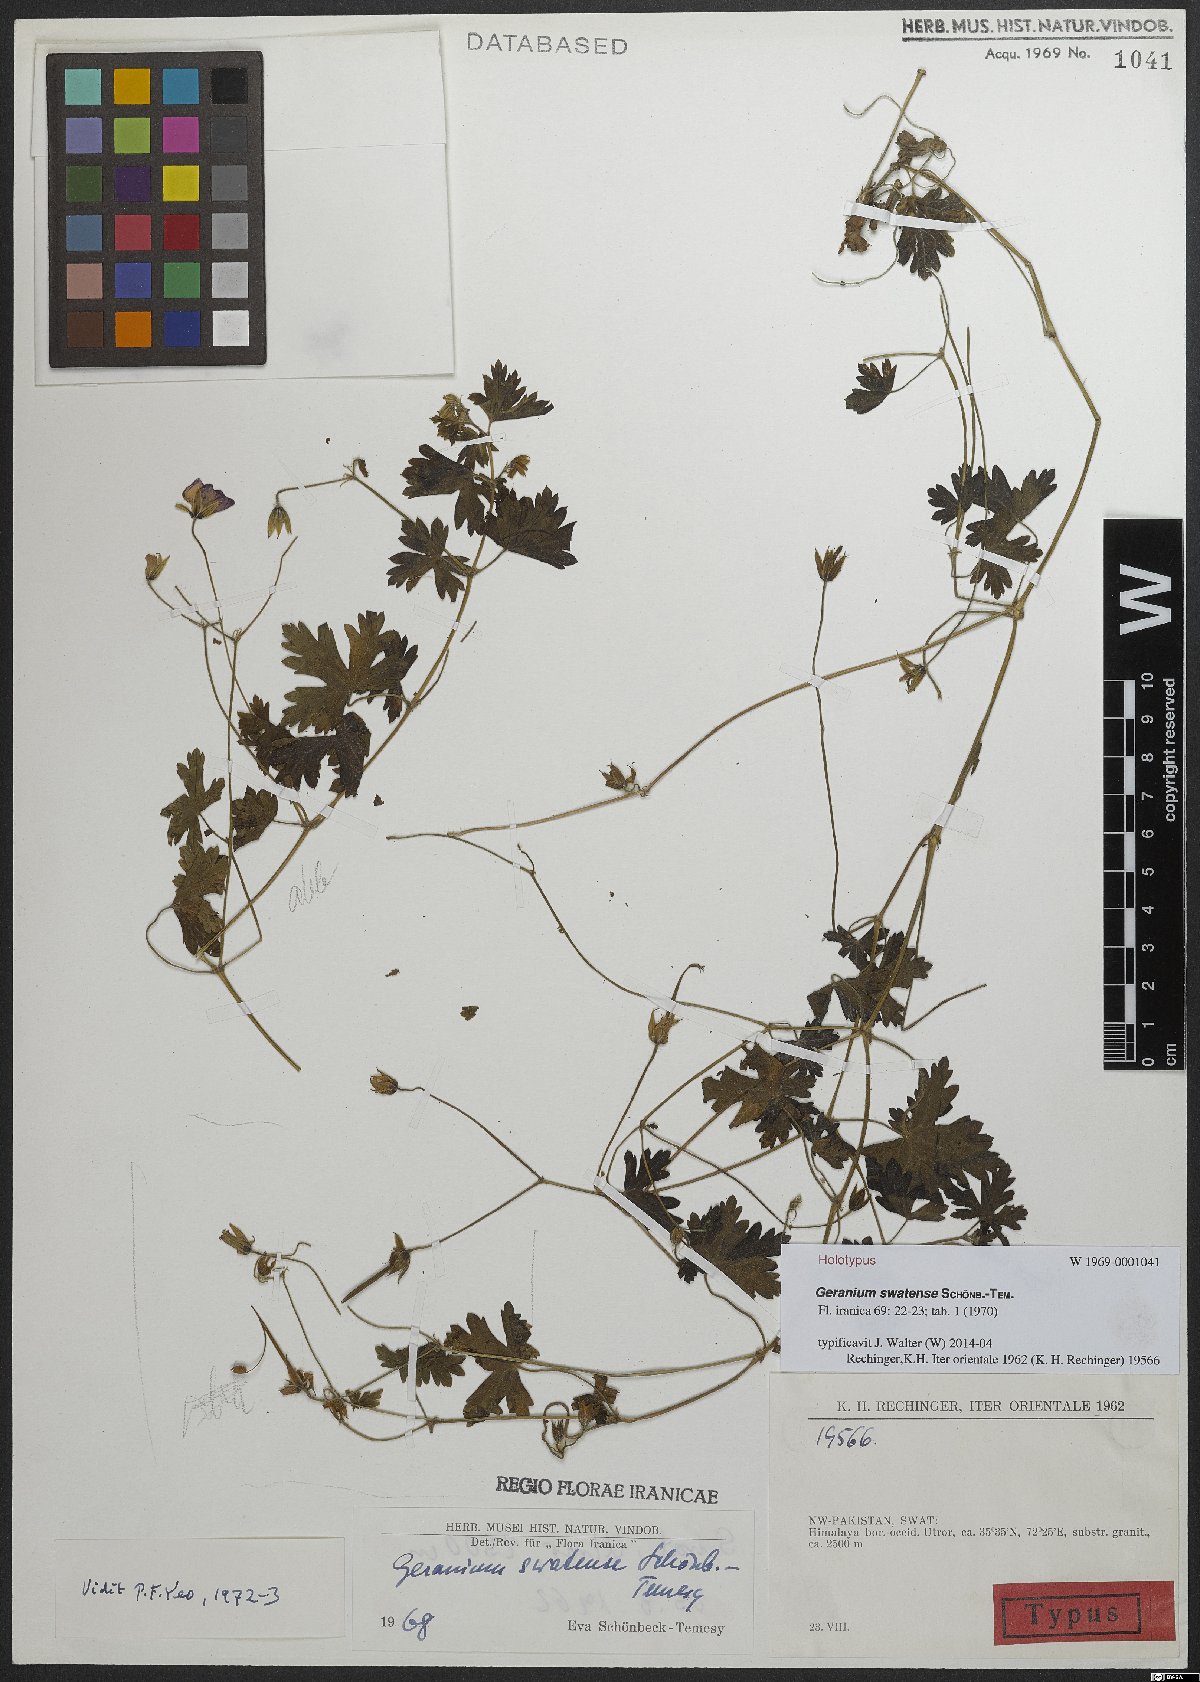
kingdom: Plantae
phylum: Tracheophyta
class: Magnoliopsida
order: Geraniales
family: Geraniaceae
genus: Geranium
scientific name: Geranium collinum
